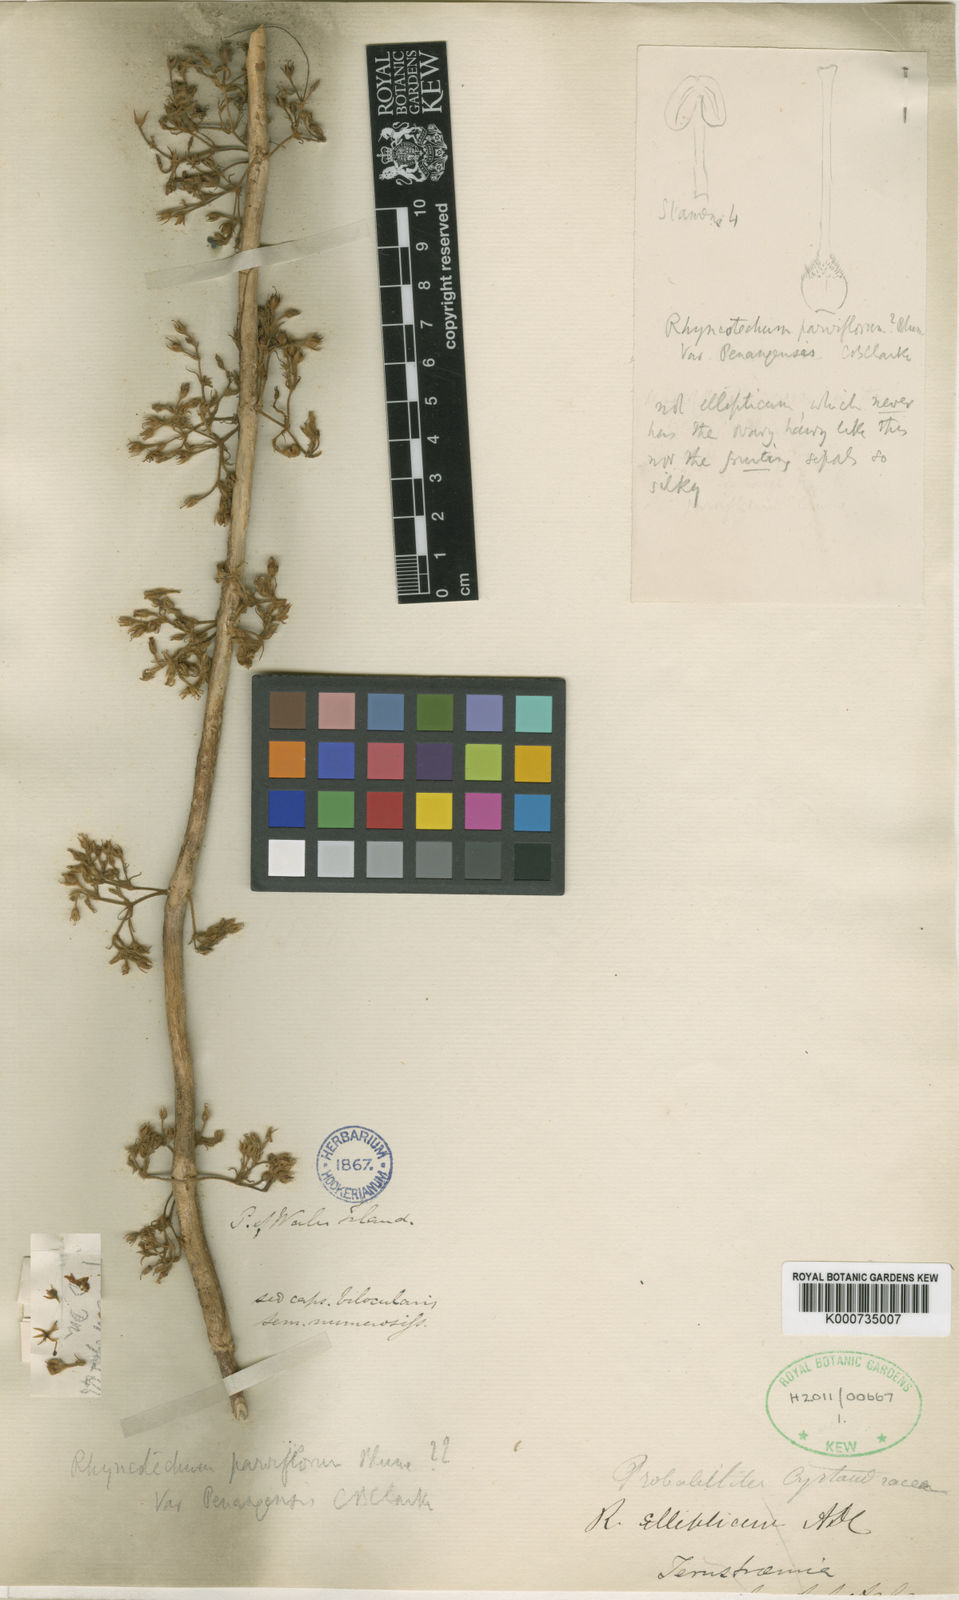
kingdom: Plantae
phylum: Tracheophyta
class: Magnoliopsida
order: Lamiales
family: Gesneriaceae
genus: Rhynchotechum
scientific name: Rhynchotechum parviflorum
